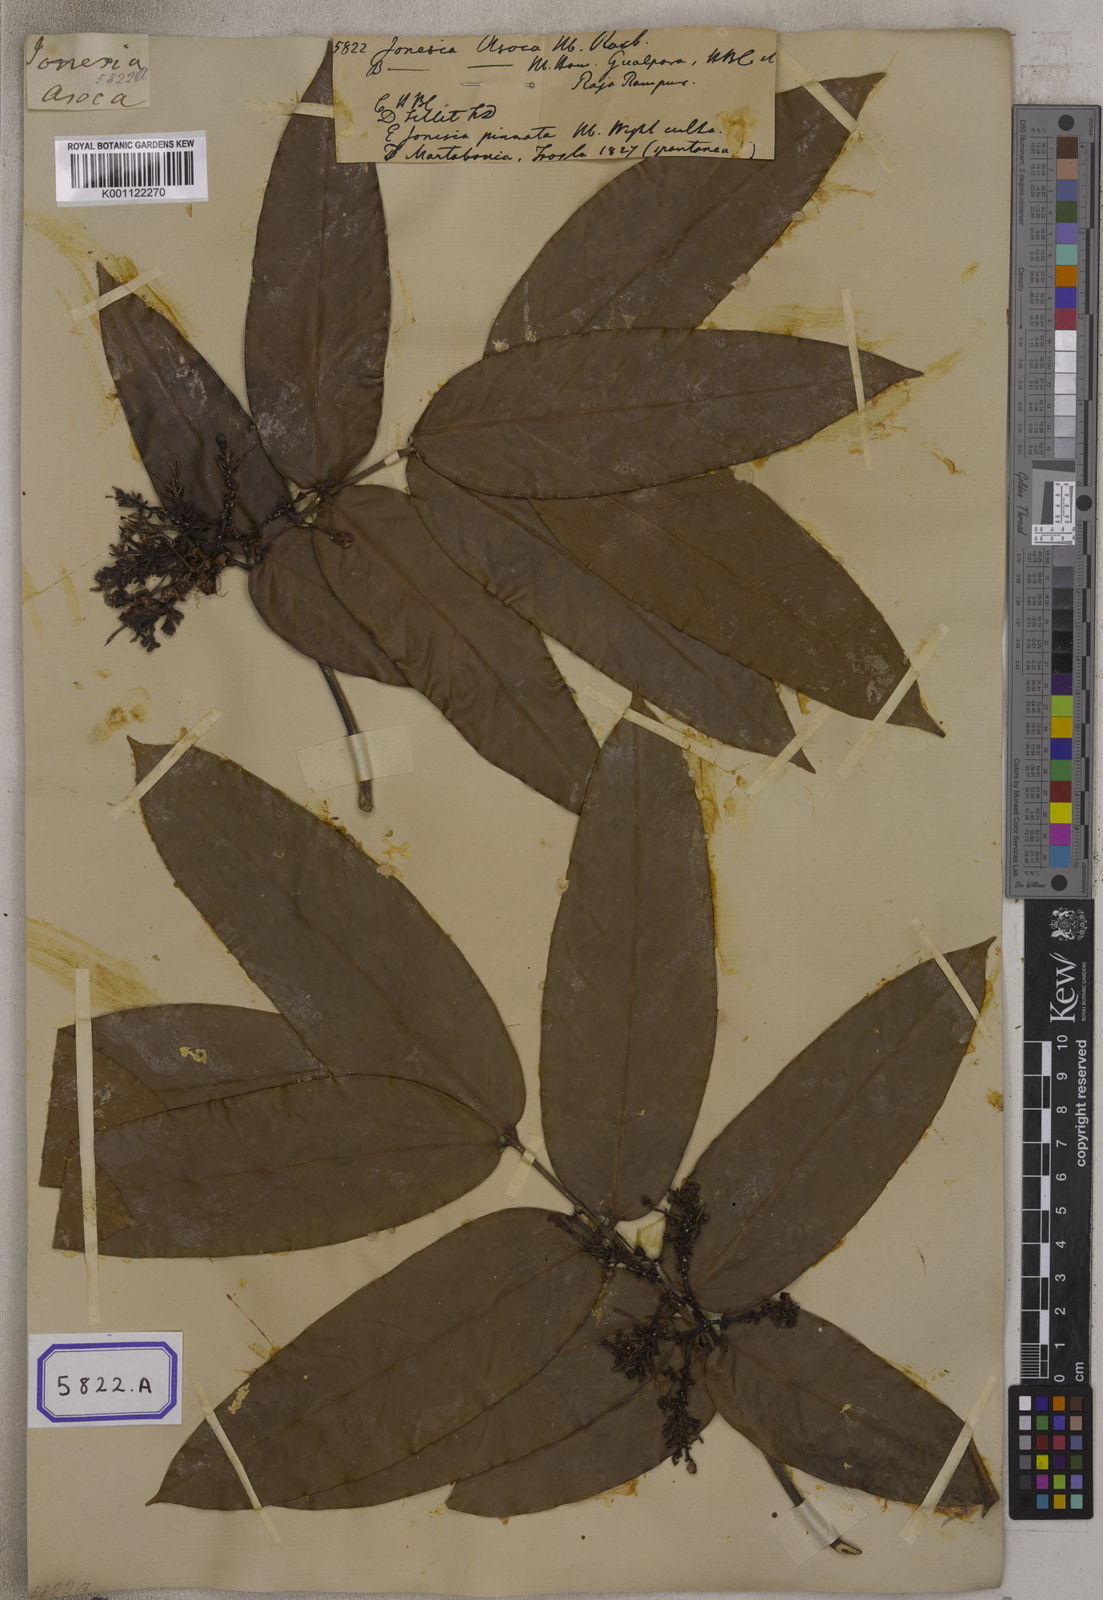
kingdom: Plantae
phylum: Tracheophyta
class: Magnoliopsida
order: Fabales
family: Fabaceae
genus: Saraca
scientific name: Saraca asoca
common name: Asoka-tree
